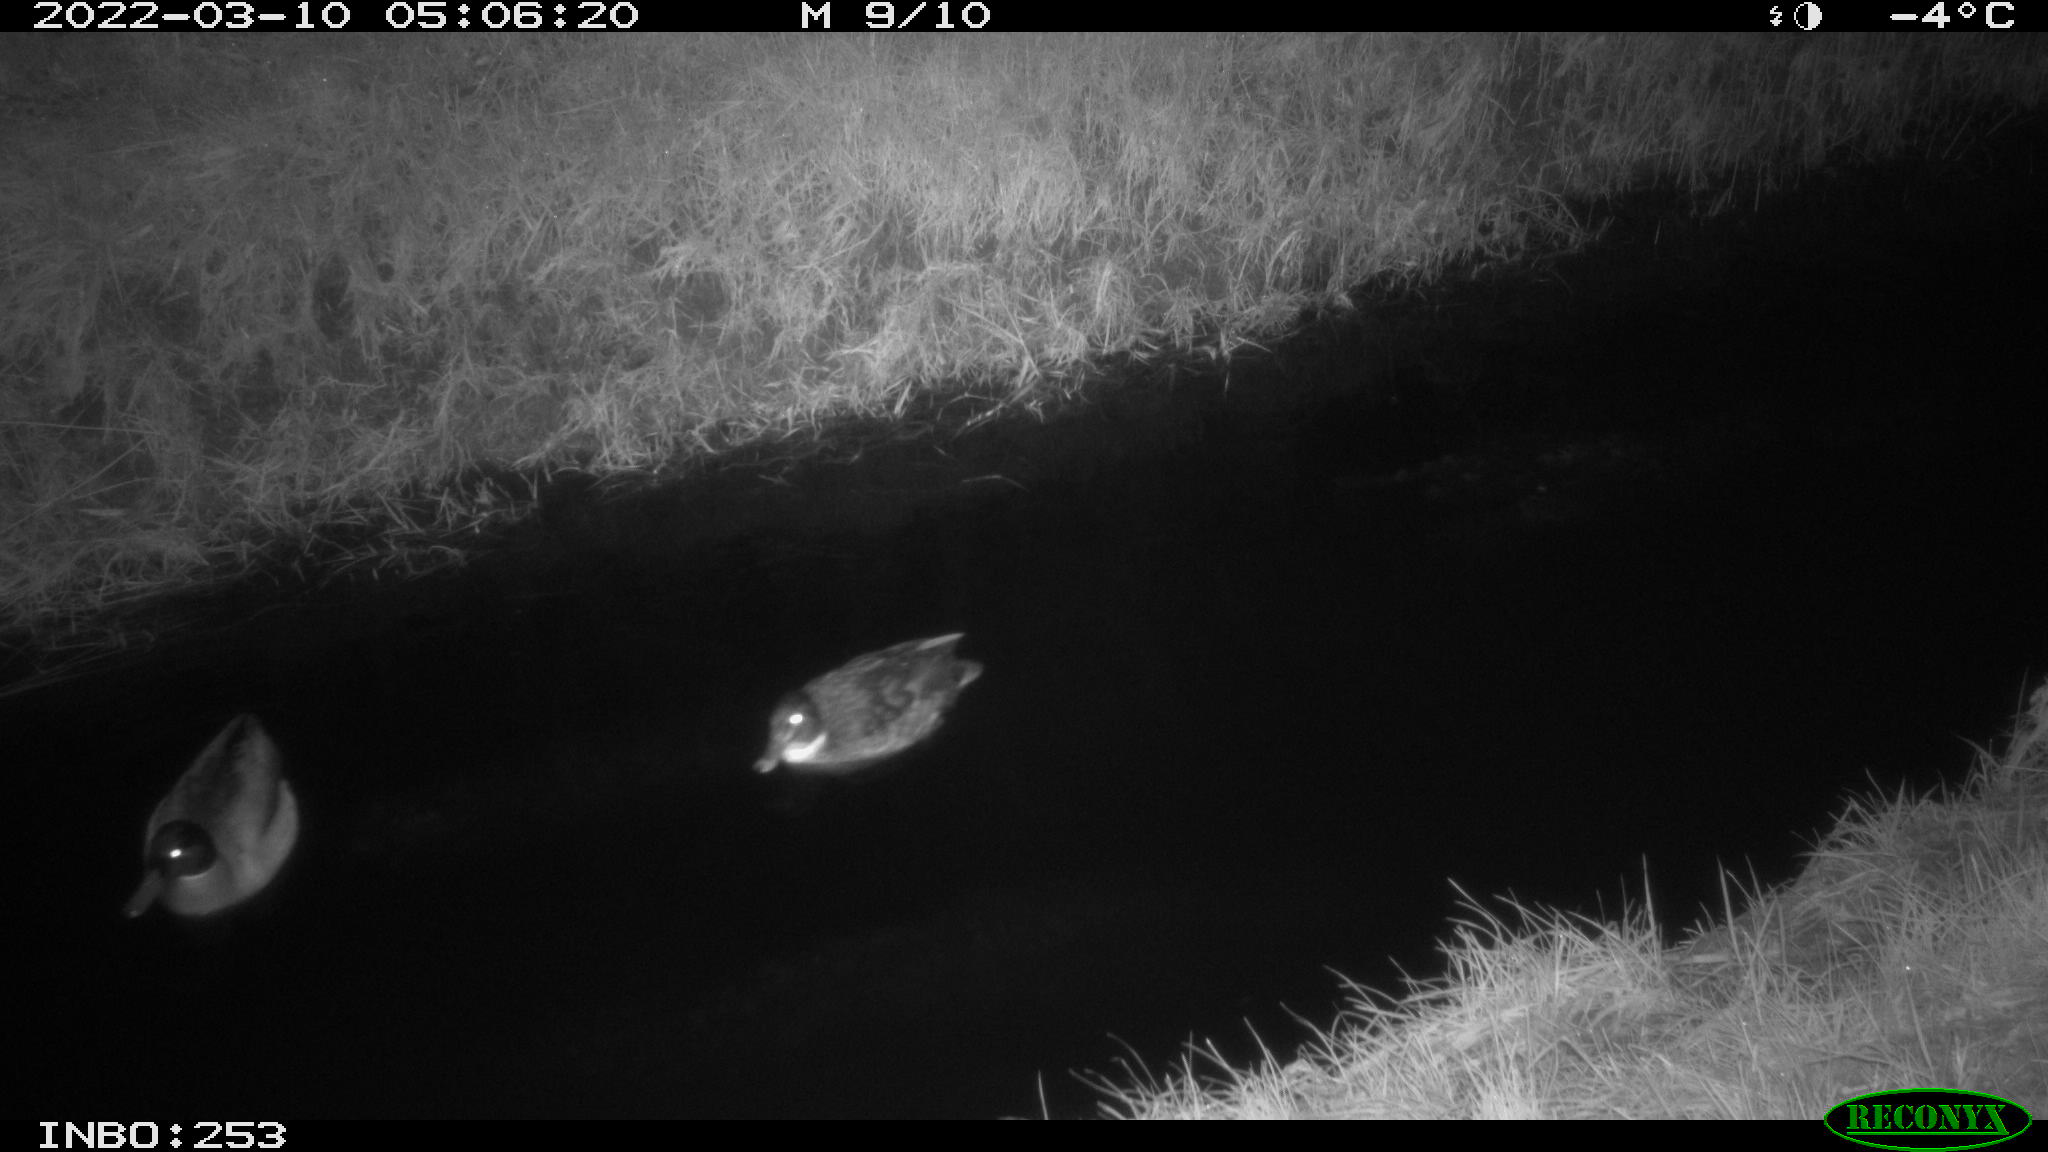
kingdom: Animalia
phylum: Chordata
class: Aves
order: Anseriformes
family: Anatidae
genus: Anas
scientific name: Anas platyrhynchos
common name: Mallard
